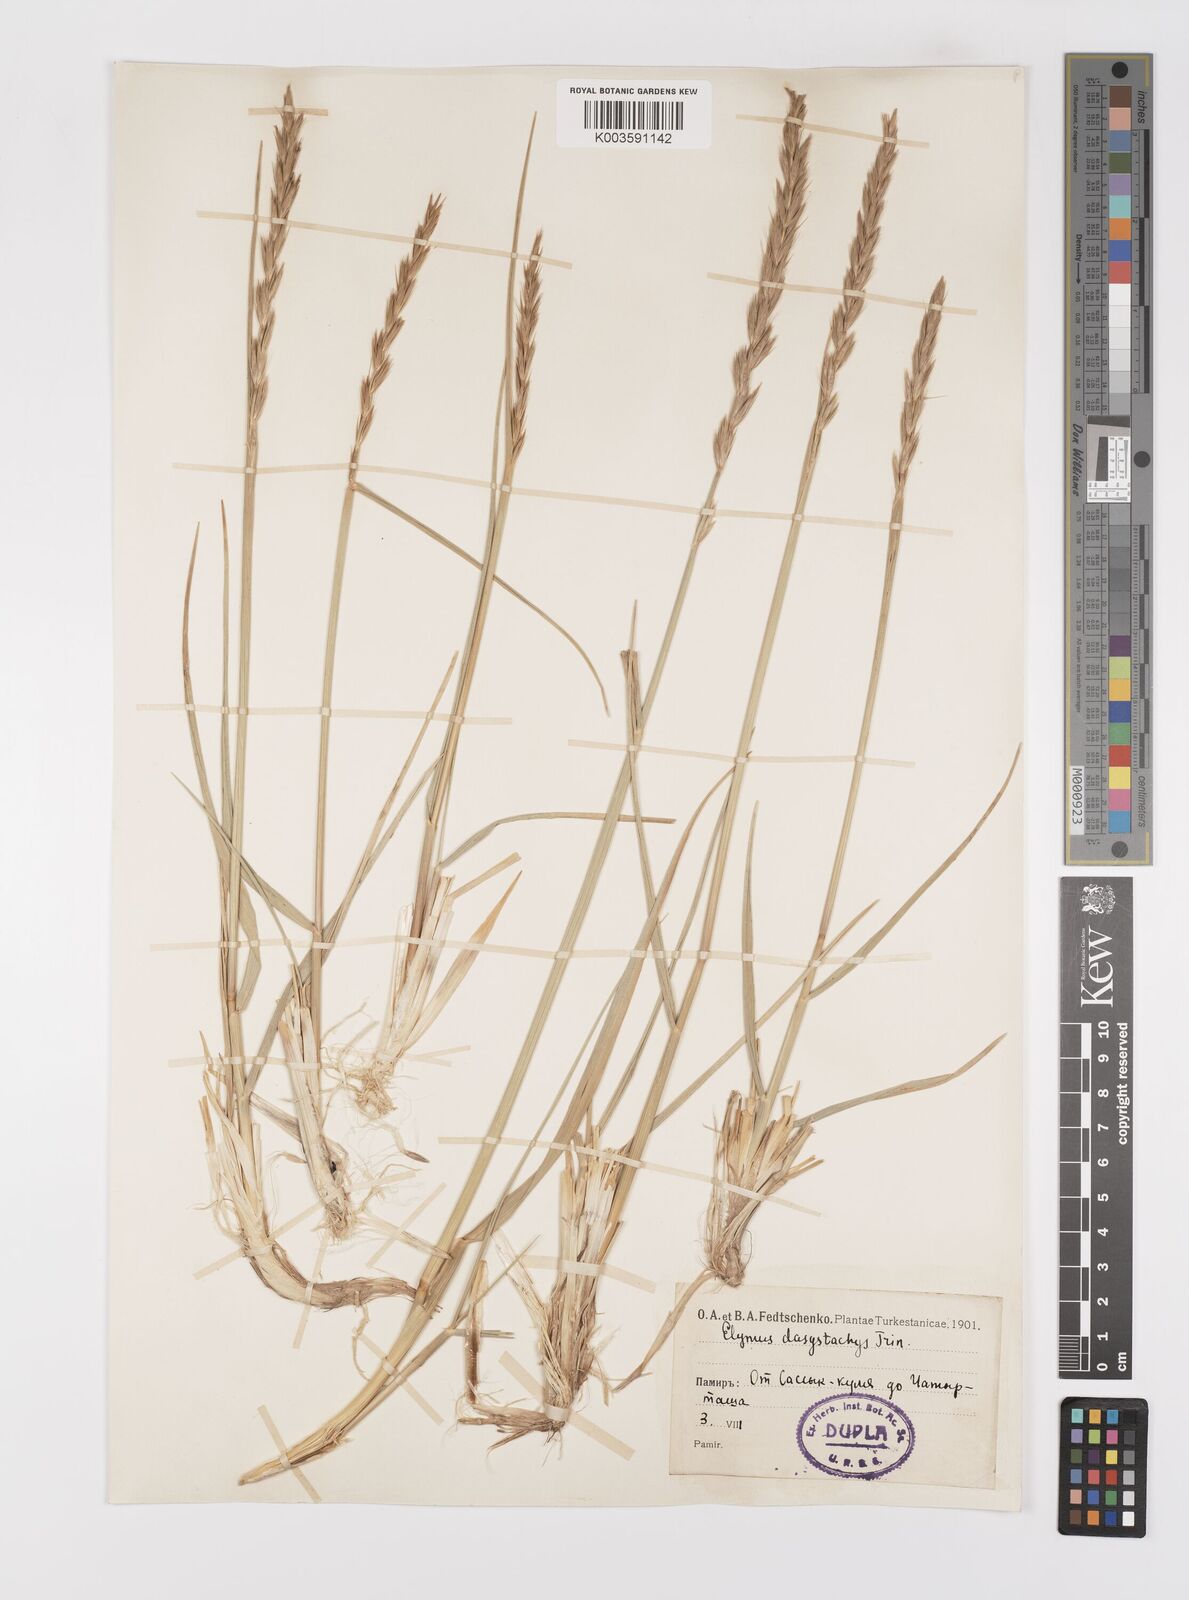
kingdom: Plantae
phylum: Tracheophyta
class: Liliopsida
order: Poales
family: Poaceae
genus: Leymus
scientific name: Leymus secalinus
